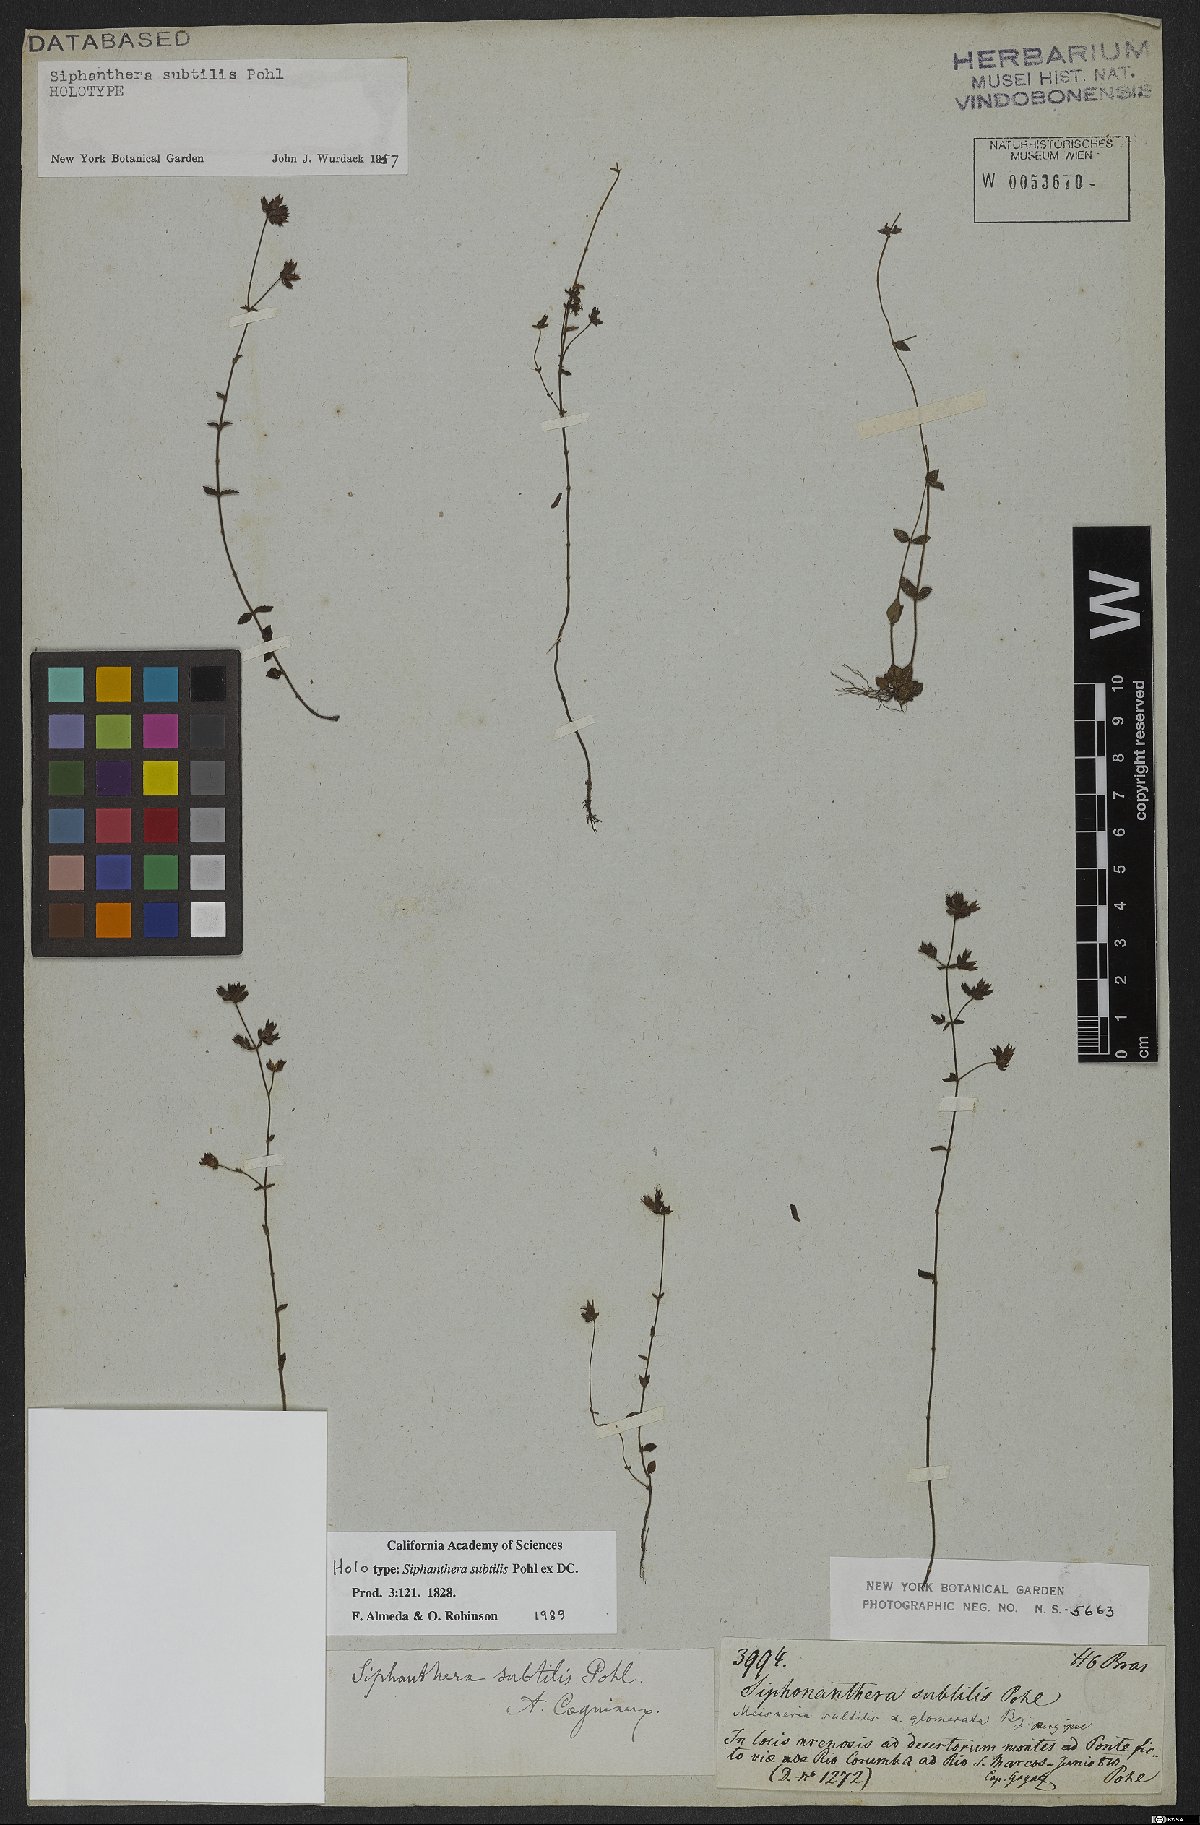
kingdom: Plantae
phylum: Tracheophyta
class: Magnoliopsida
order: Myrtales
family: Melastomataceae
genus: Siphanthera
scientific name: Siphanthera subtilis
